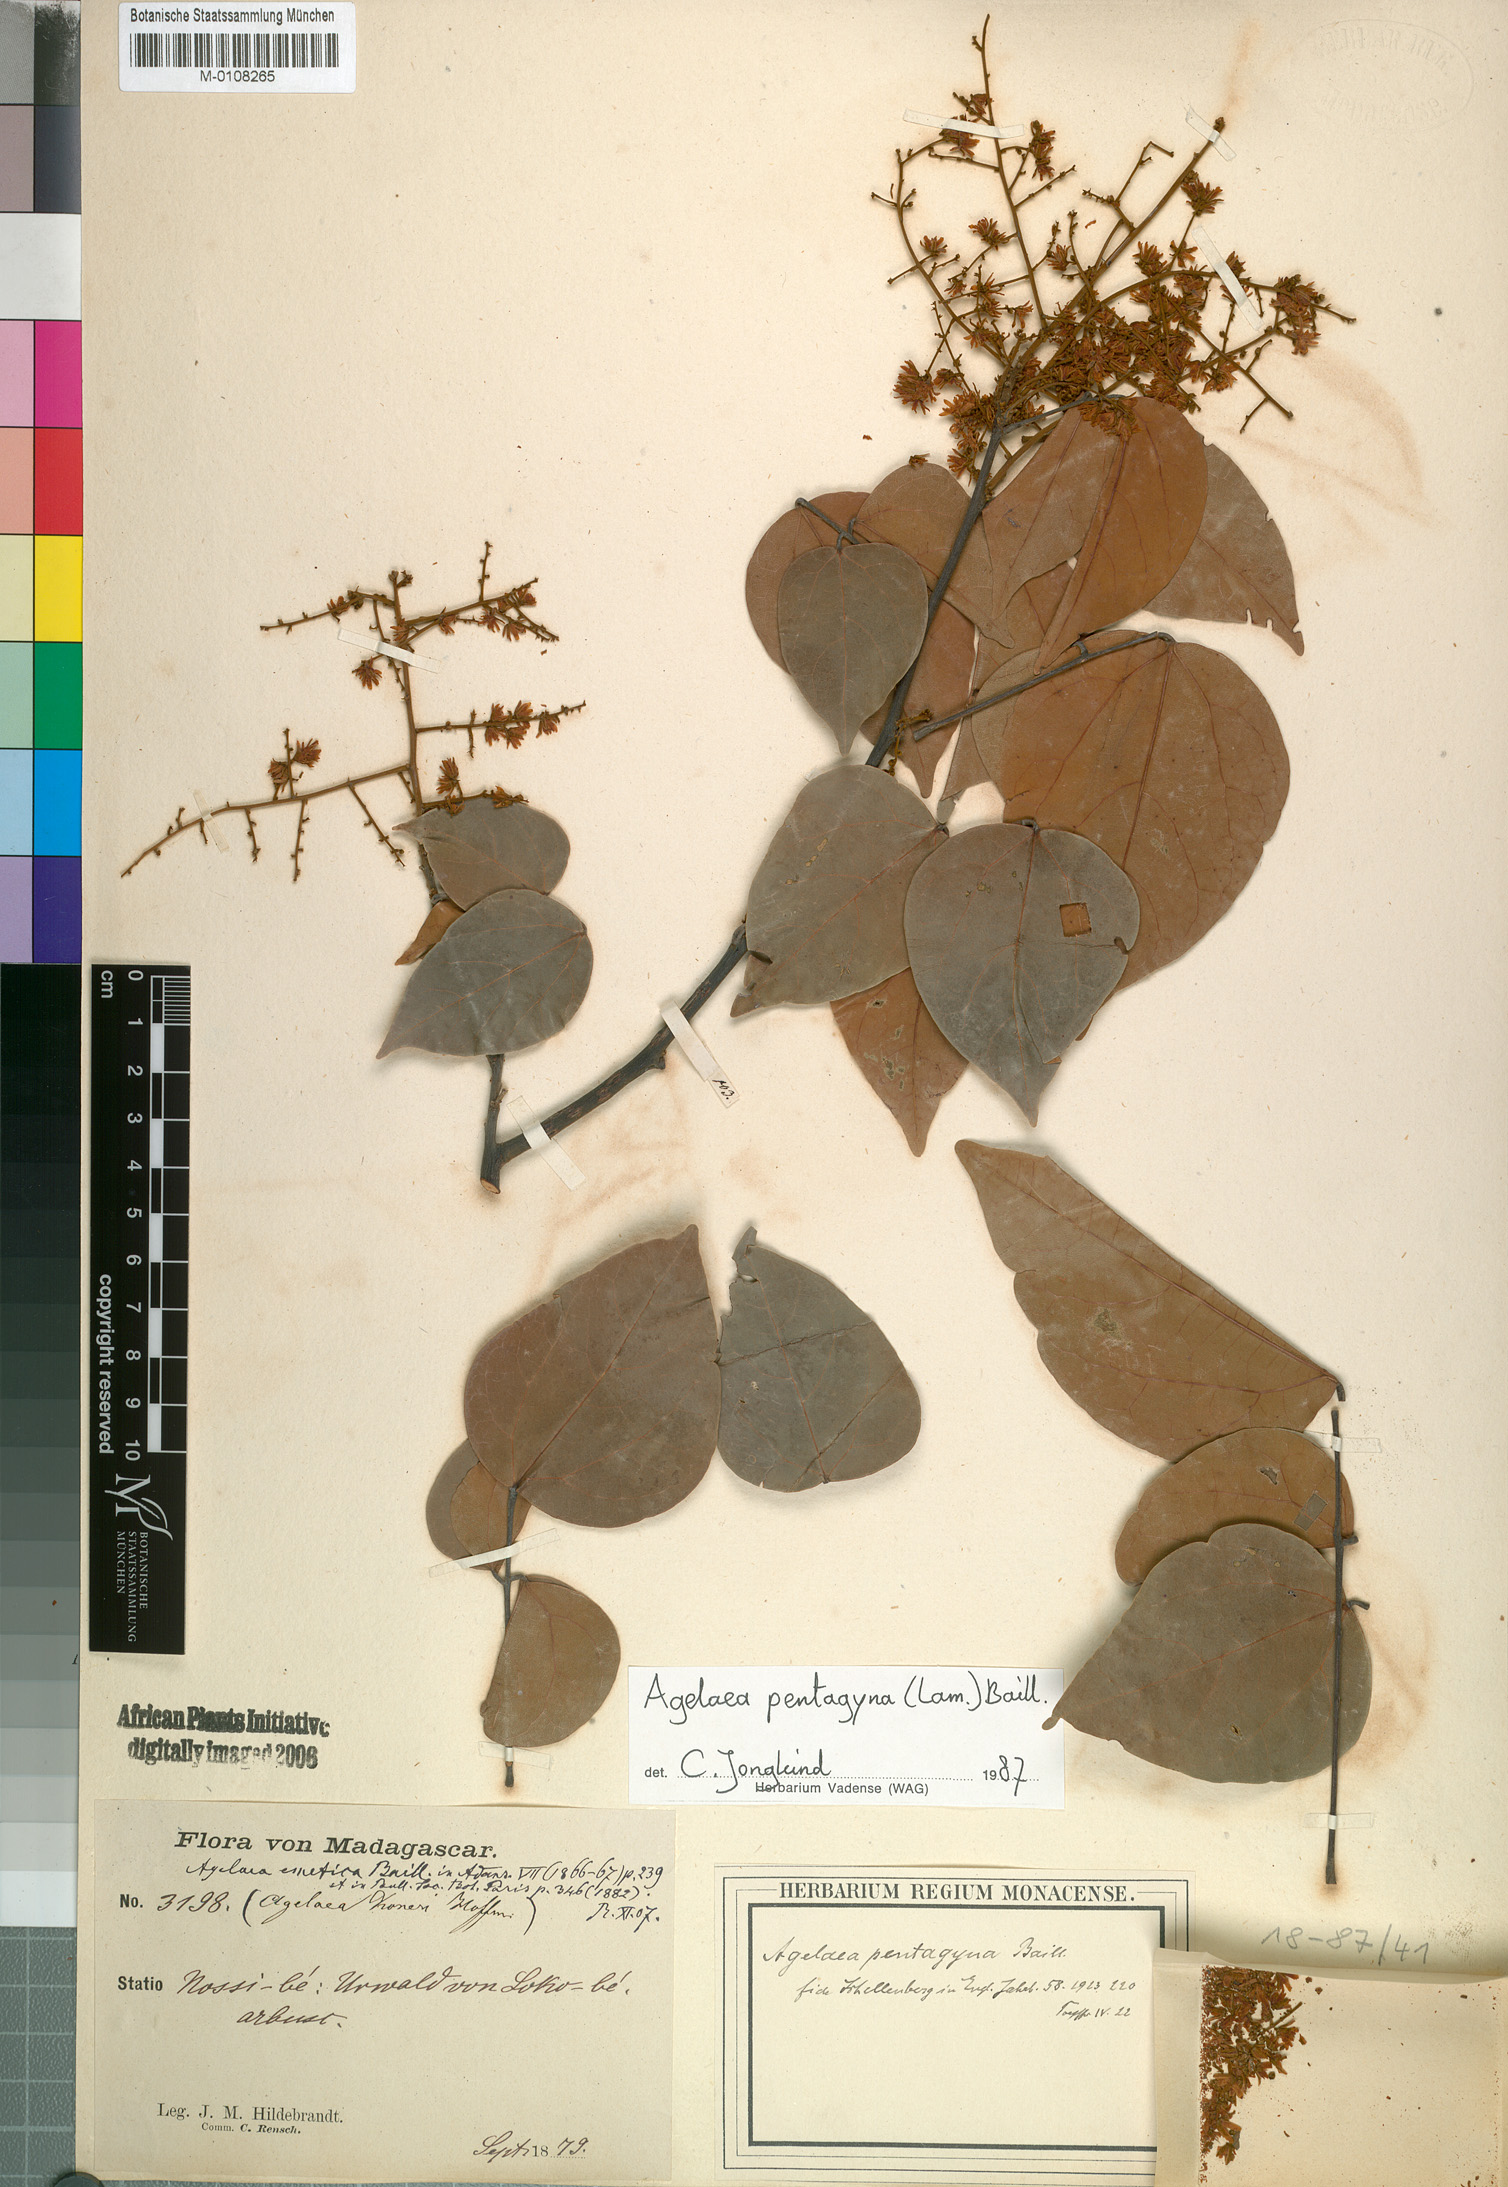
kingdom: Plantae
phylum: Tracheophyta
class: Magnoliopsida
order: Oxalidales
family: Connaraceae
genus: Agelaea
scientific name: Agelaea pentagyna
